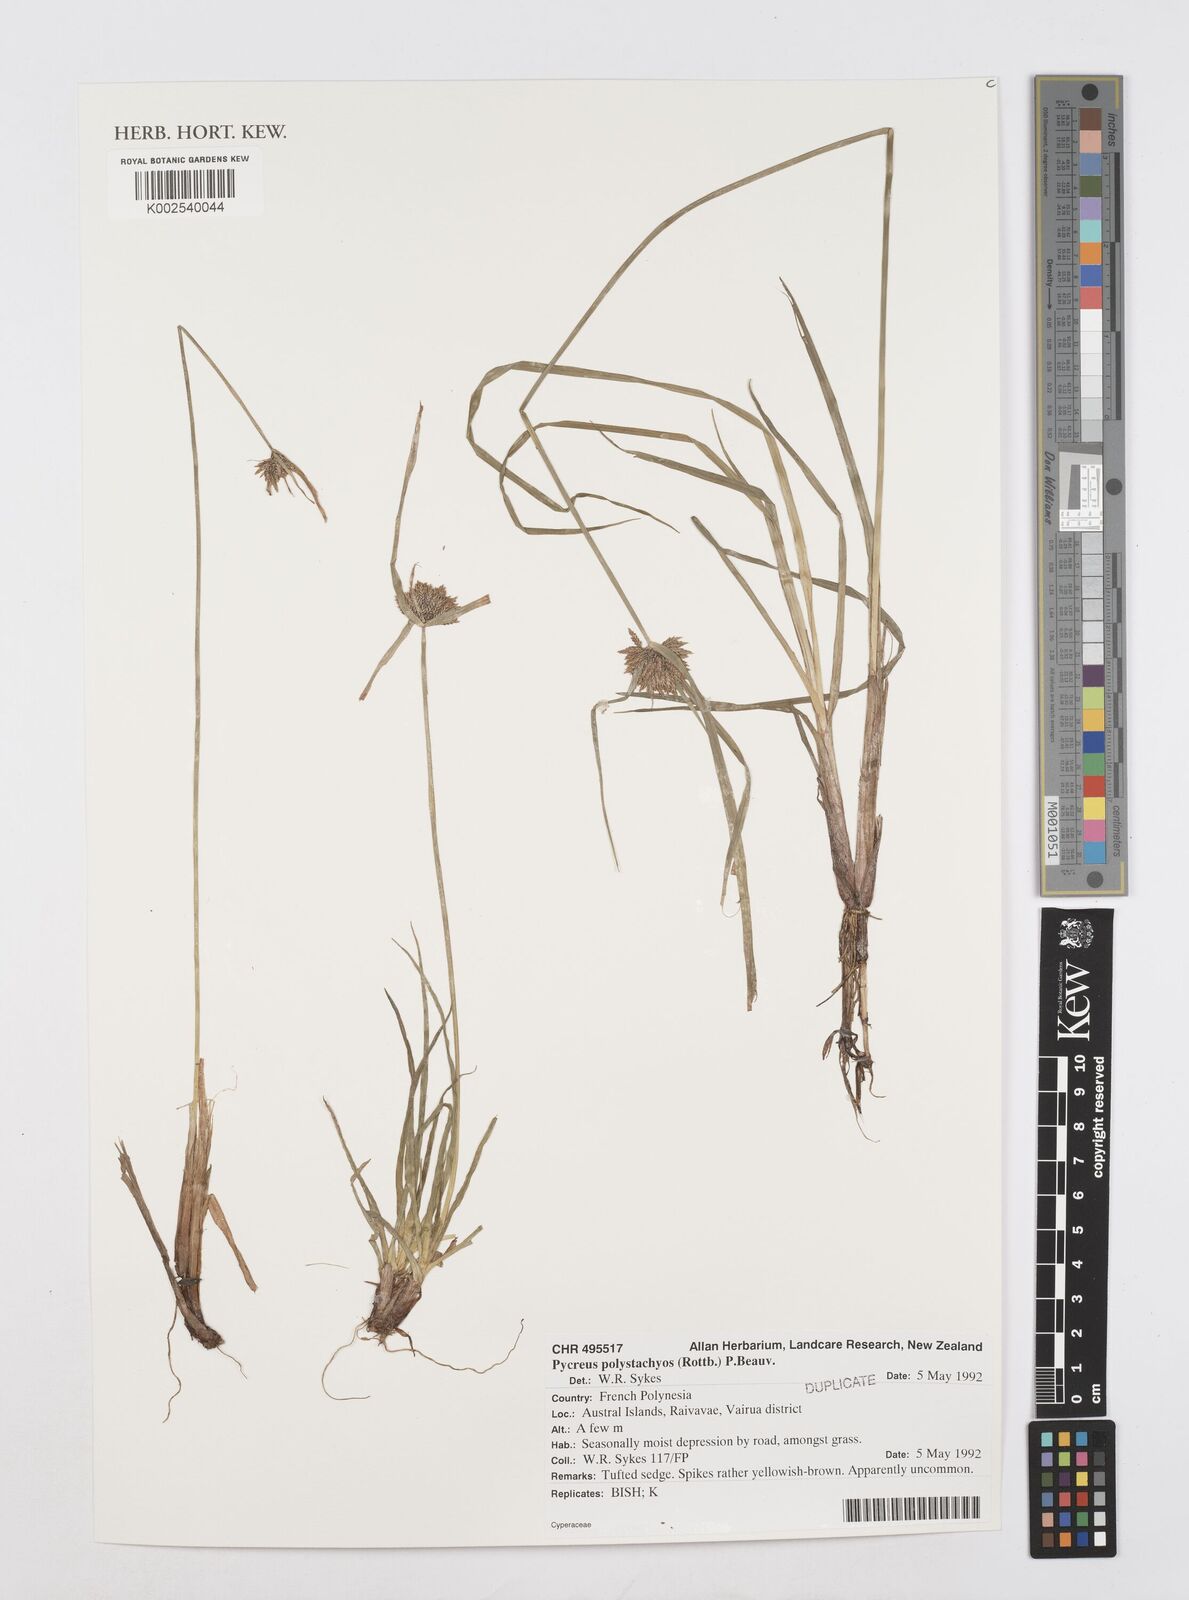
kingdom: Plantae
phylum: Tracheophyta
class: Liliopsida
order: Poales
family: Cyperaceae
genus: Cyperus
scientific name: Cyperus polystachyos
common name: Bunchy flat sedge
